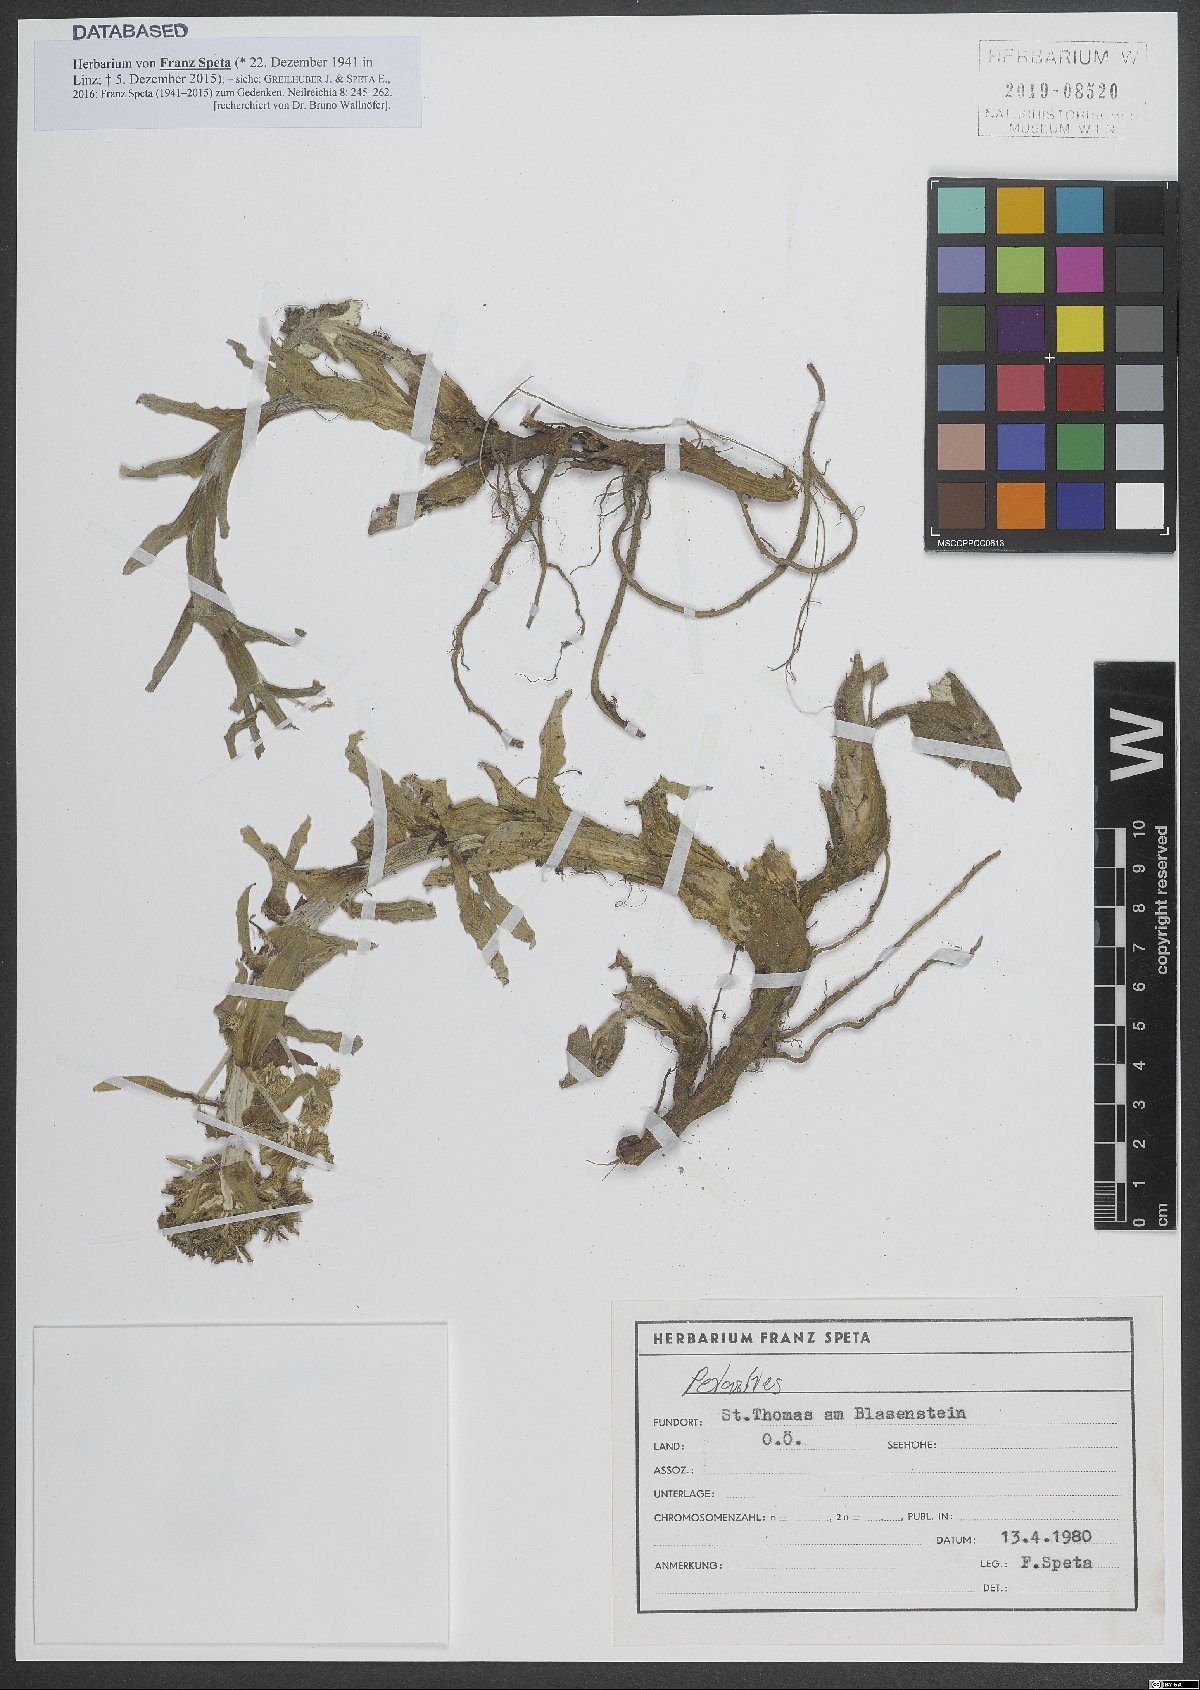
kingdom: Plantae
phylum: Tracheophyta
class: Magnoliopsida
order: Asterales
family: Asteraceae
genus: Petasites
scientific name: Petasites
